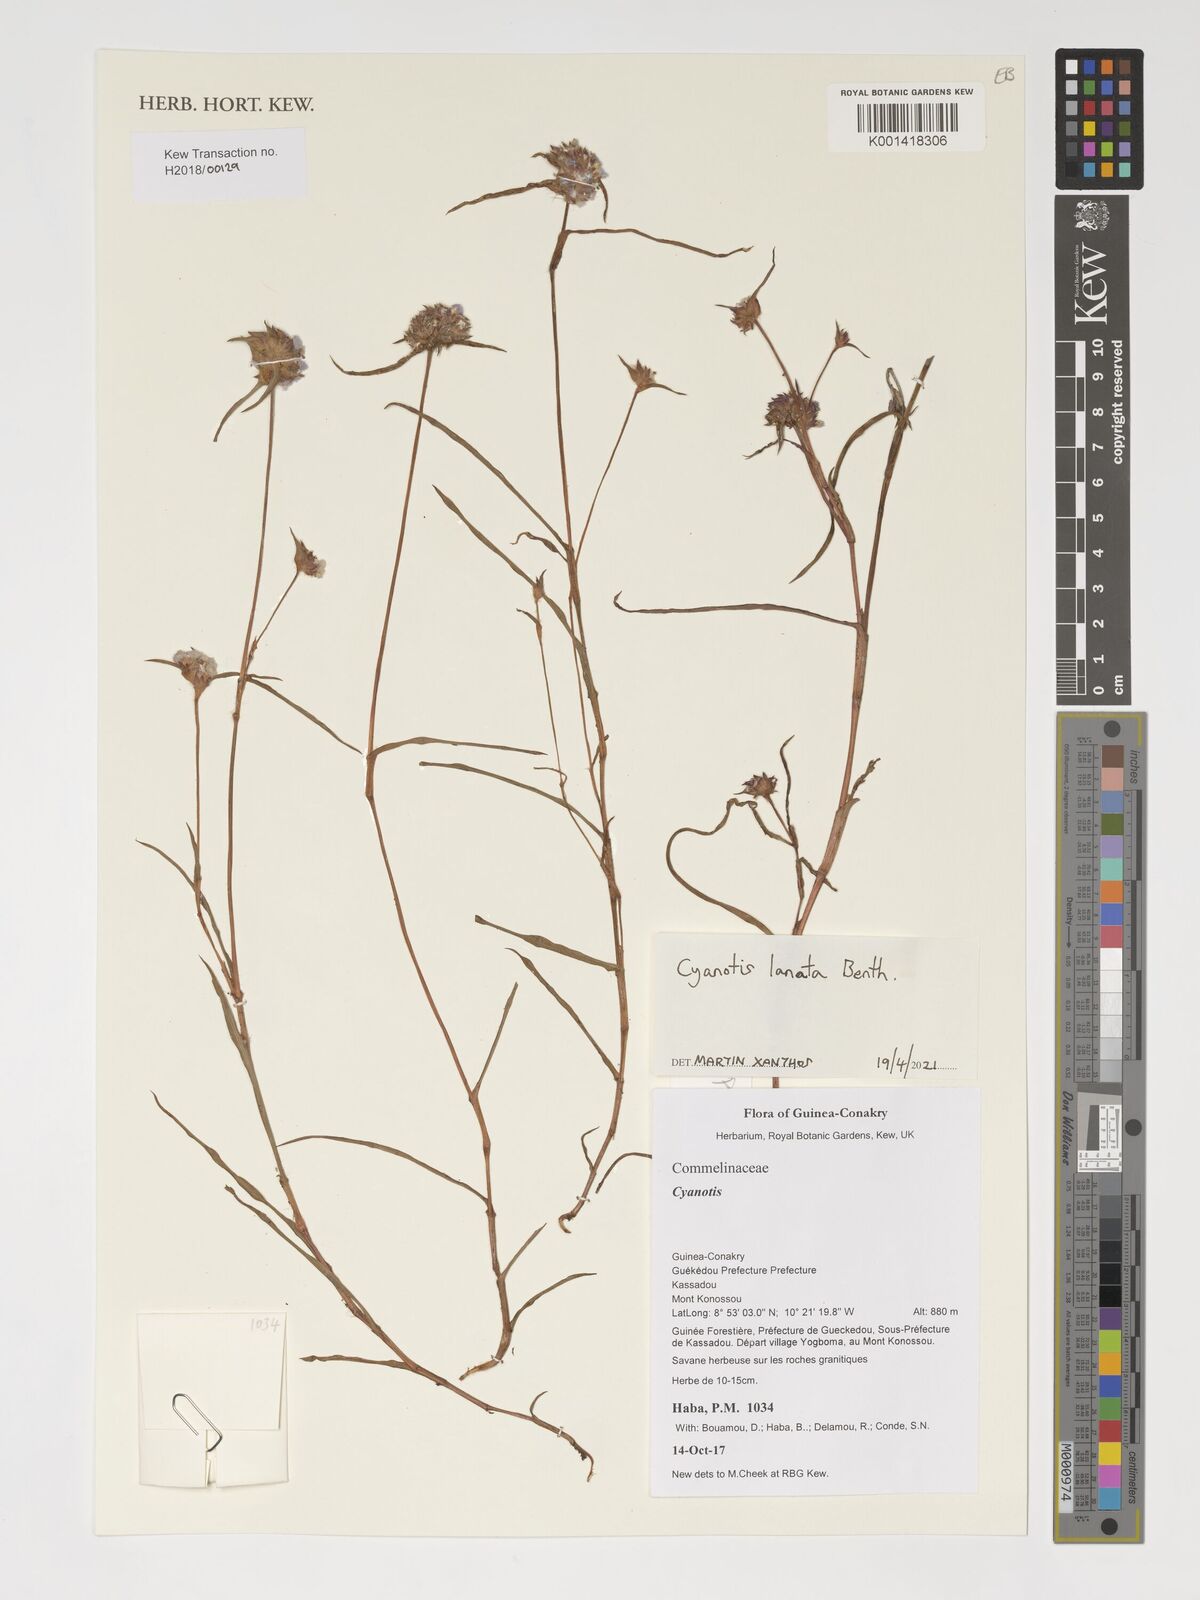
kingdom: Plantae
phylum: Tracheophyta
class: Liliopsida
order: Commelinales
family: Commelinaceae
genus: Cyanotis
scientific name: Cyanotis lanata
